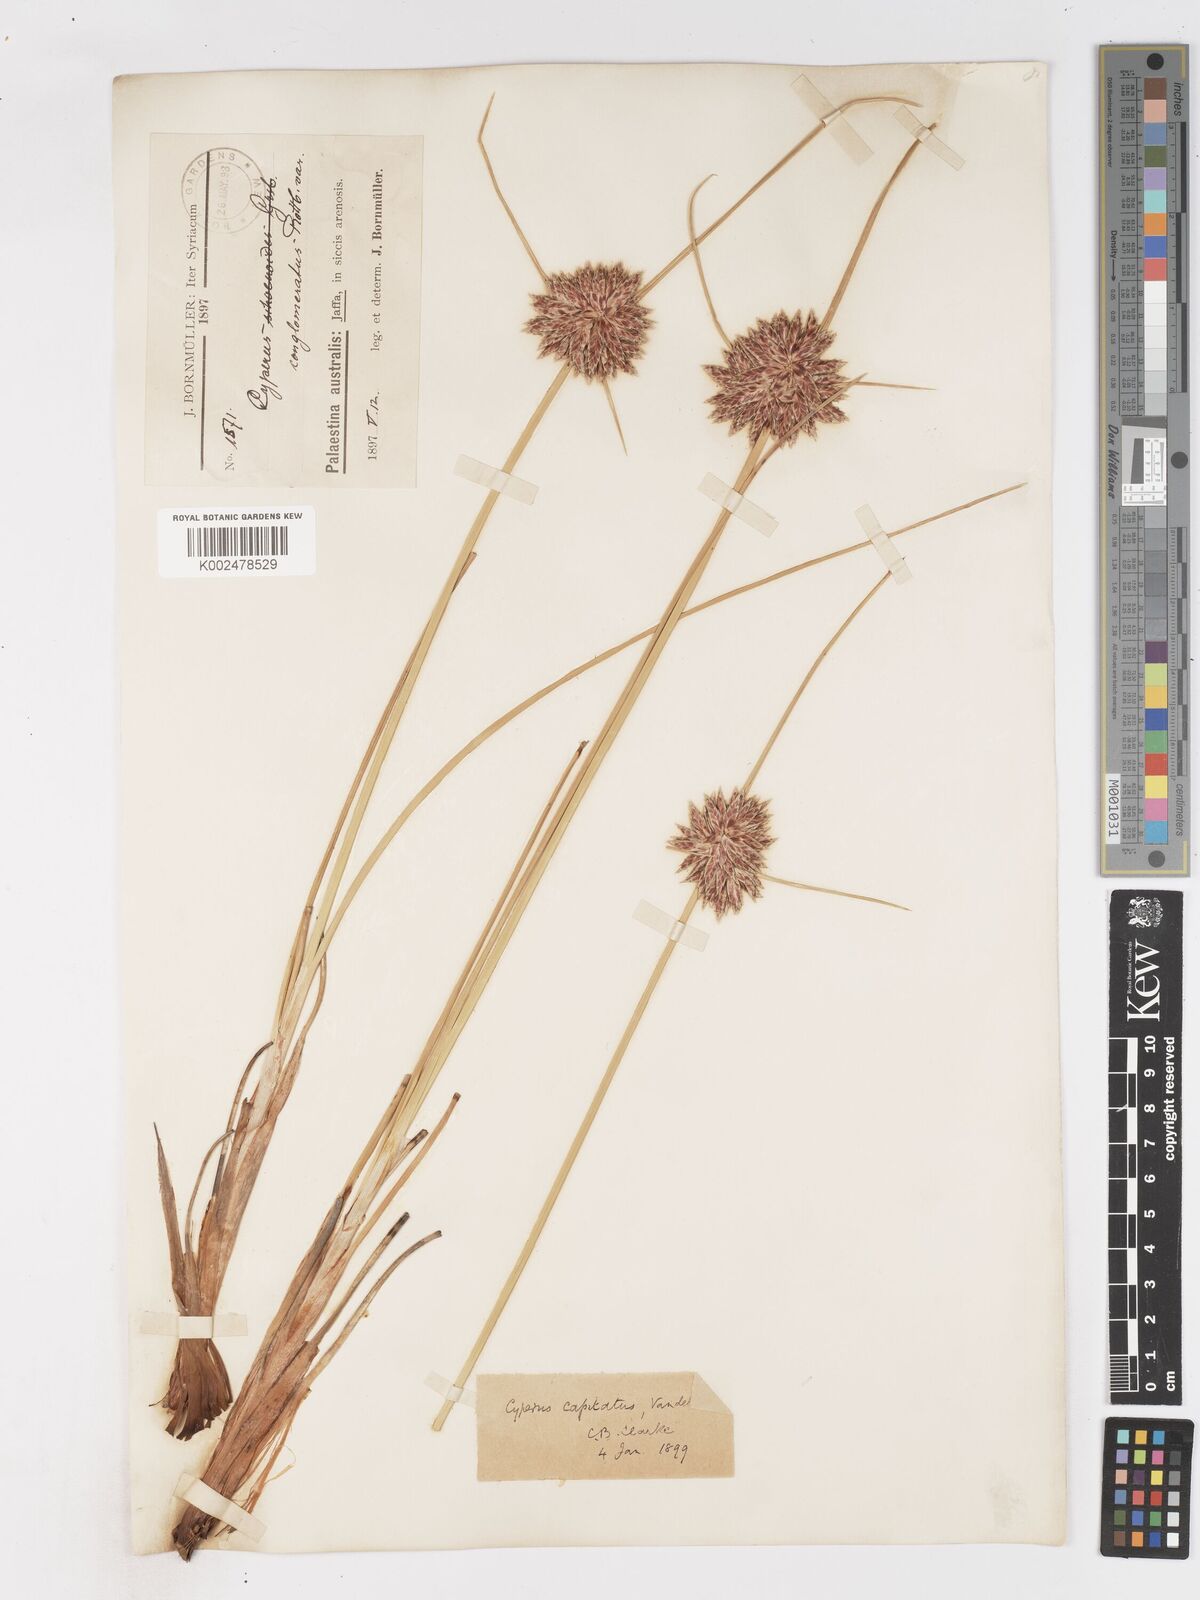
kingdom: Plantae
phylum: Tracheophyta
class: Liliopsida
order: Poales
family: Cyperaceae
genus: Cyperus
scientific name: Cyperus capitatus
